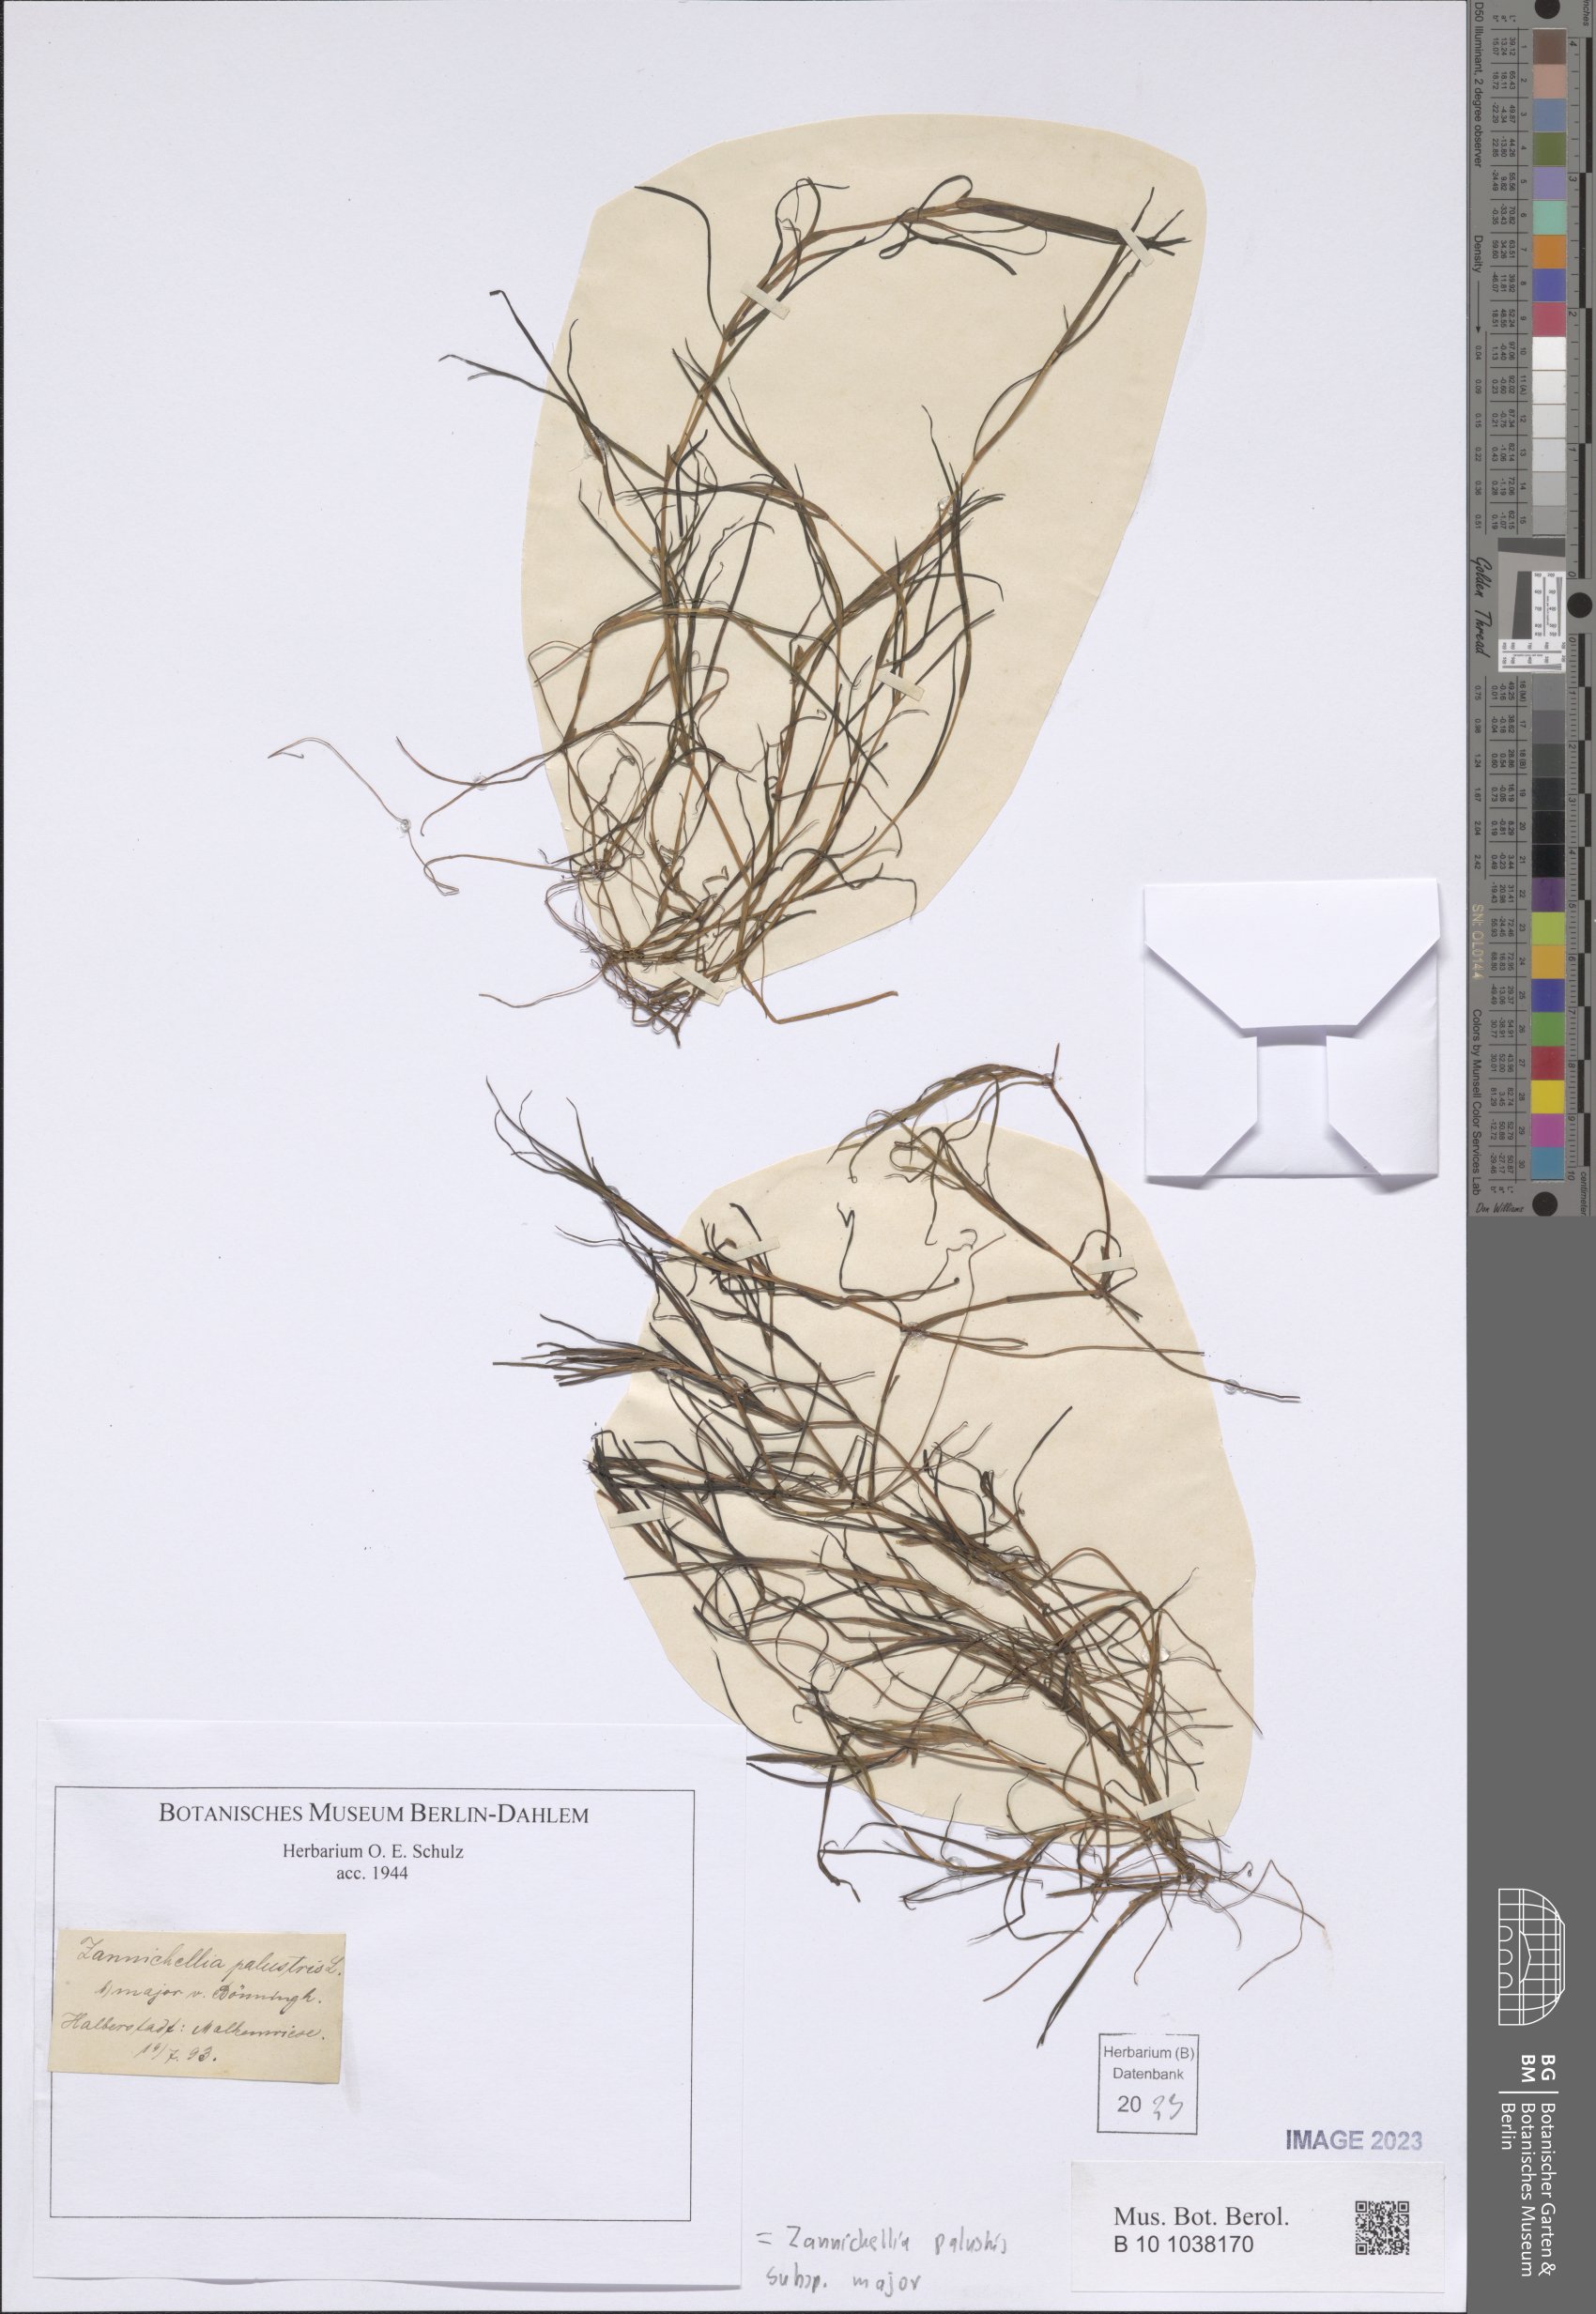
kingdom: Plantae
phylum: Tracheophyta
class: Liliopsida
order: Alismatales
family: Potamogetonaceae
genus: Zannichellia
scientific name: Zannichellia palustris
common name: Horned pondweed
